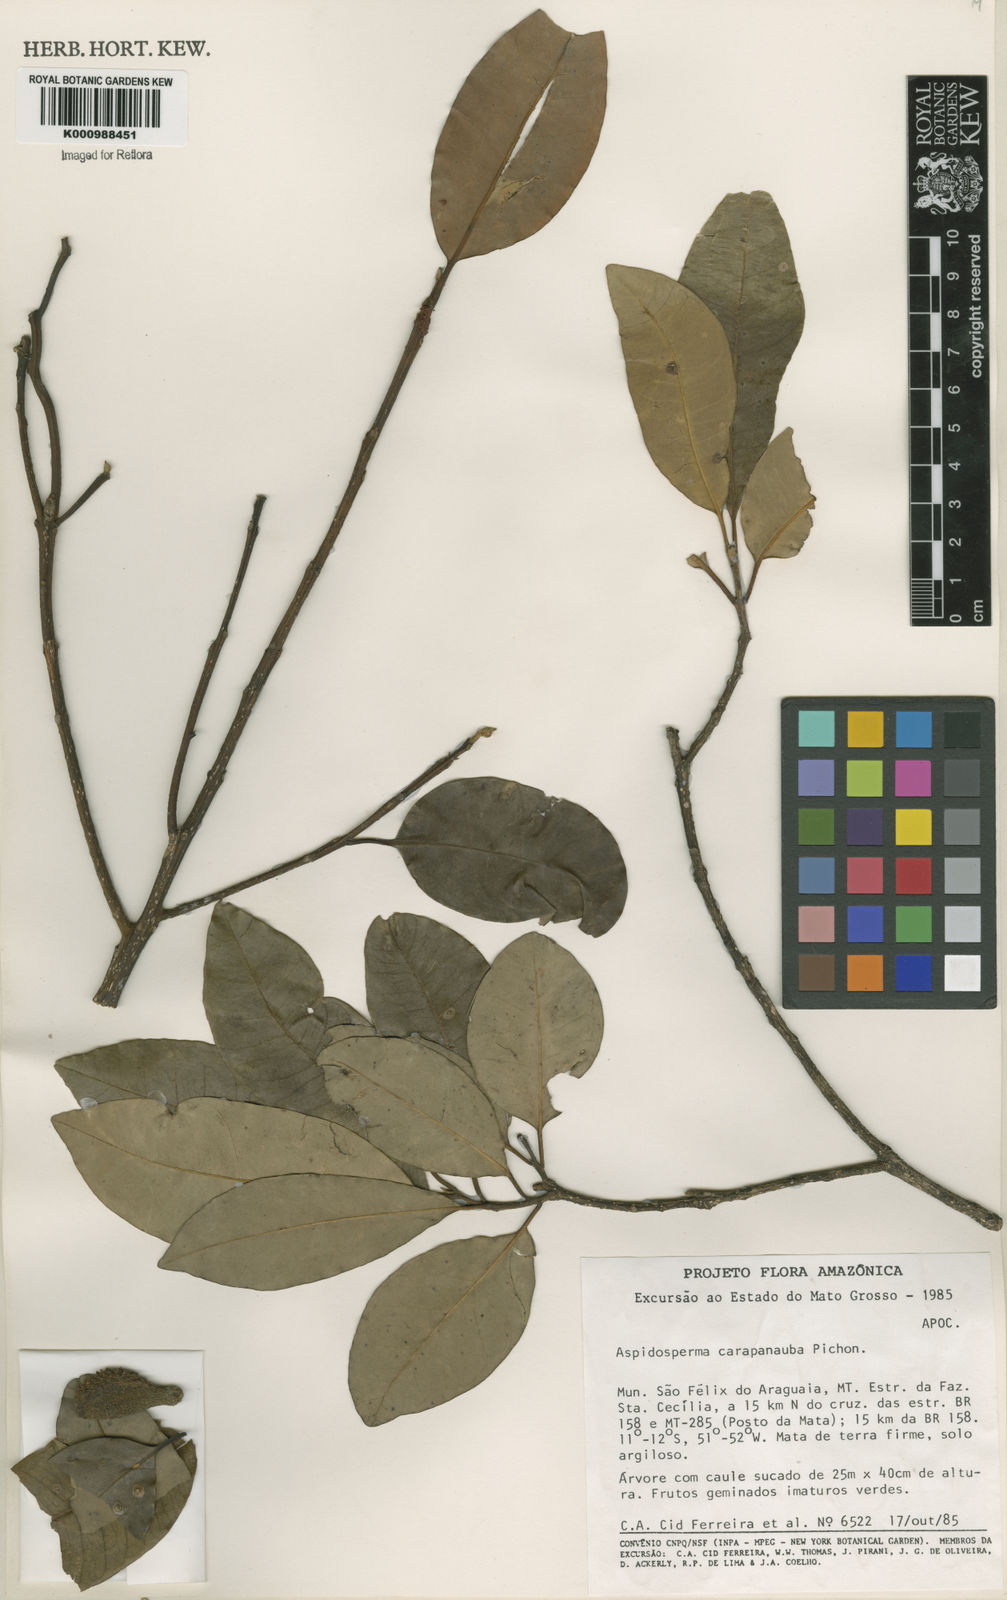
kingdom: Plantae
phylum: Tracheophyta
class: Magnoliopsida
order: Gentianales
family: Apocynaceae
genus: Aspidosperma
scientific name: Aspidosperma carapanauba
